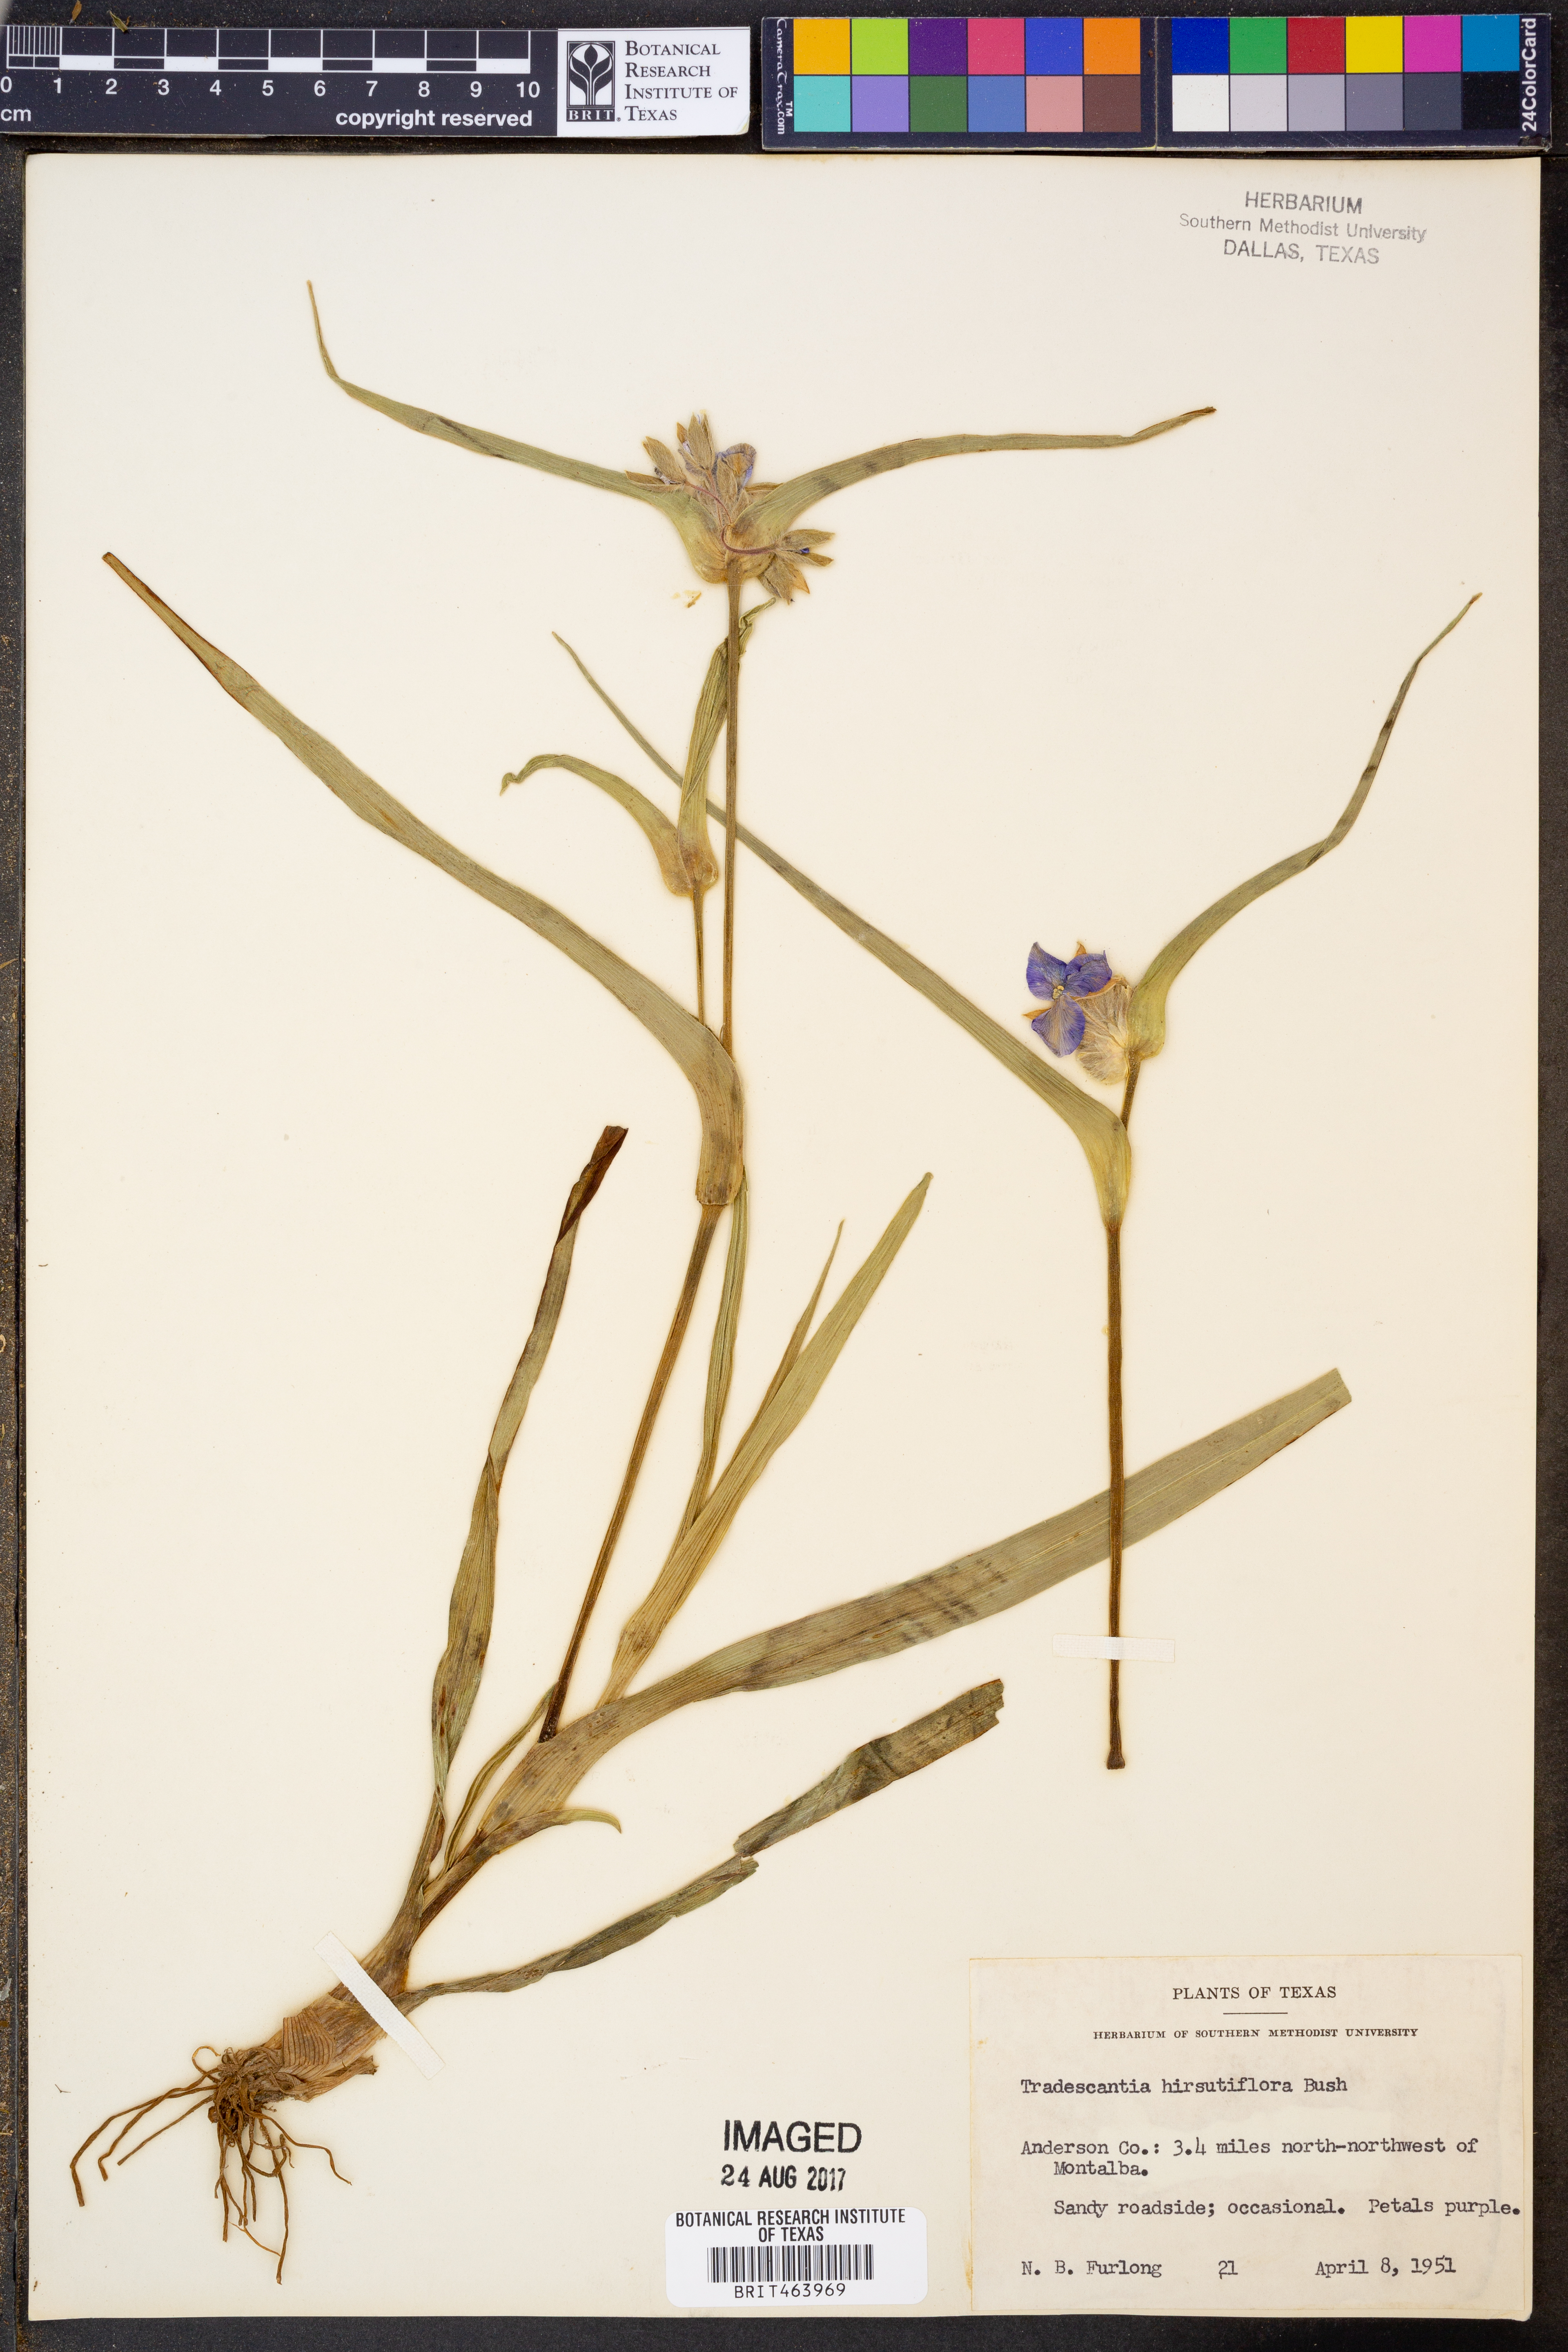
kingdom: Plantae
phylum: Tracheophyta
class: Liliopsida
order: Commelinales
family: Commelinaceae
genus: Tradescantia
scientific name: Tradescantia hirsutiflora
